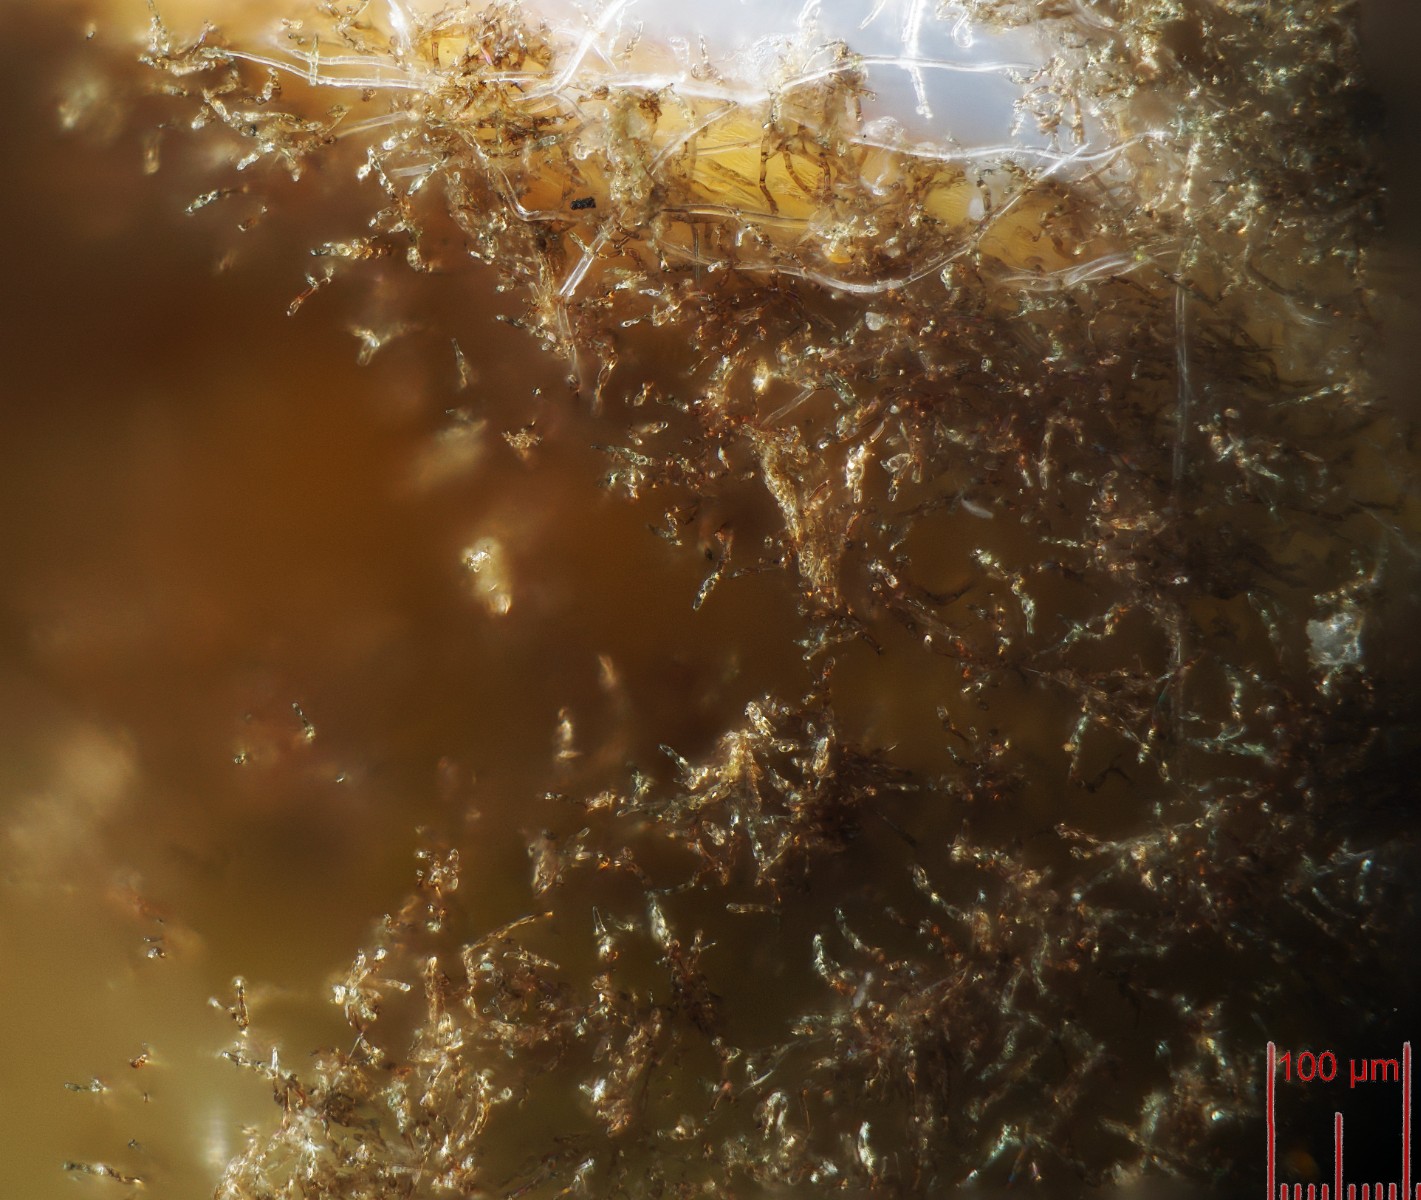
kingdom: Fungi
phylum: Ascomycota
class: Dothideomycetes
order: Mycosphaerellales
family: Mycosphaerellaceae
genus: Ragnhildiana
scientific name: Ragnhildiana ferruginea
